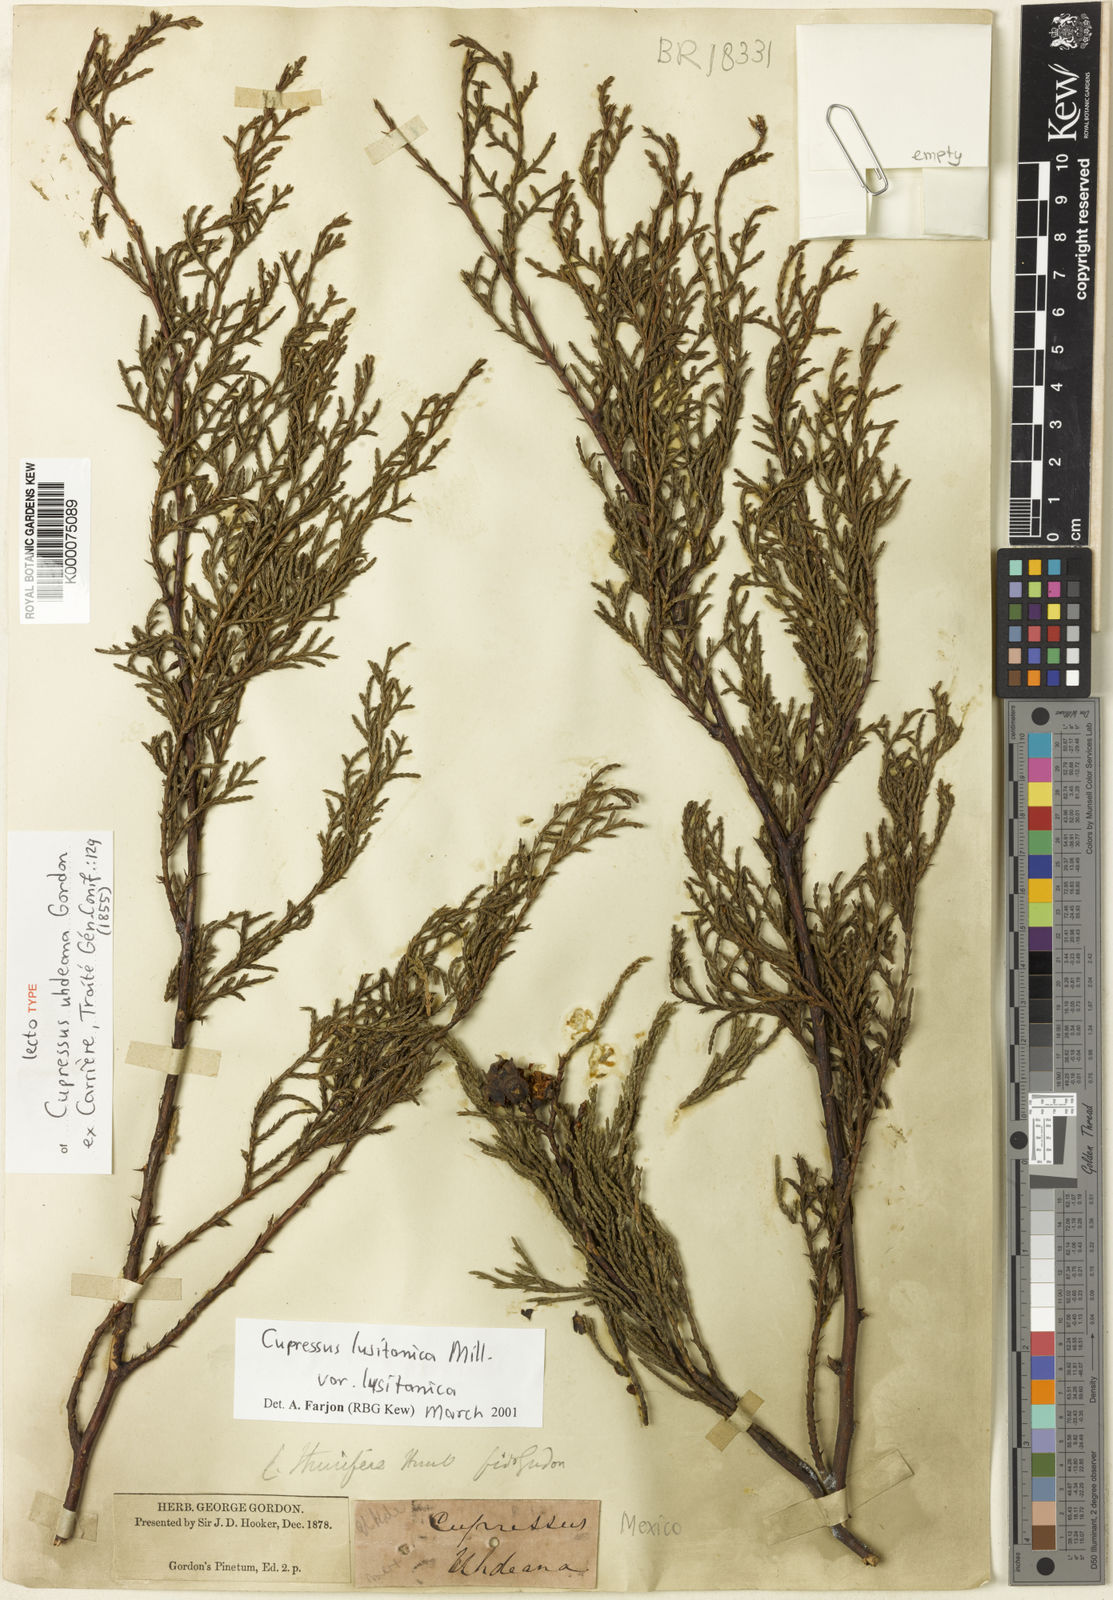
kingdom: Plantae
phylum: Tracheophyta
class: Pinopsida
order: Pinales
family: Cupressaceae
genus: Cupressus
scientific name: Cupressus lusitanica
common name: Mexican cypress
